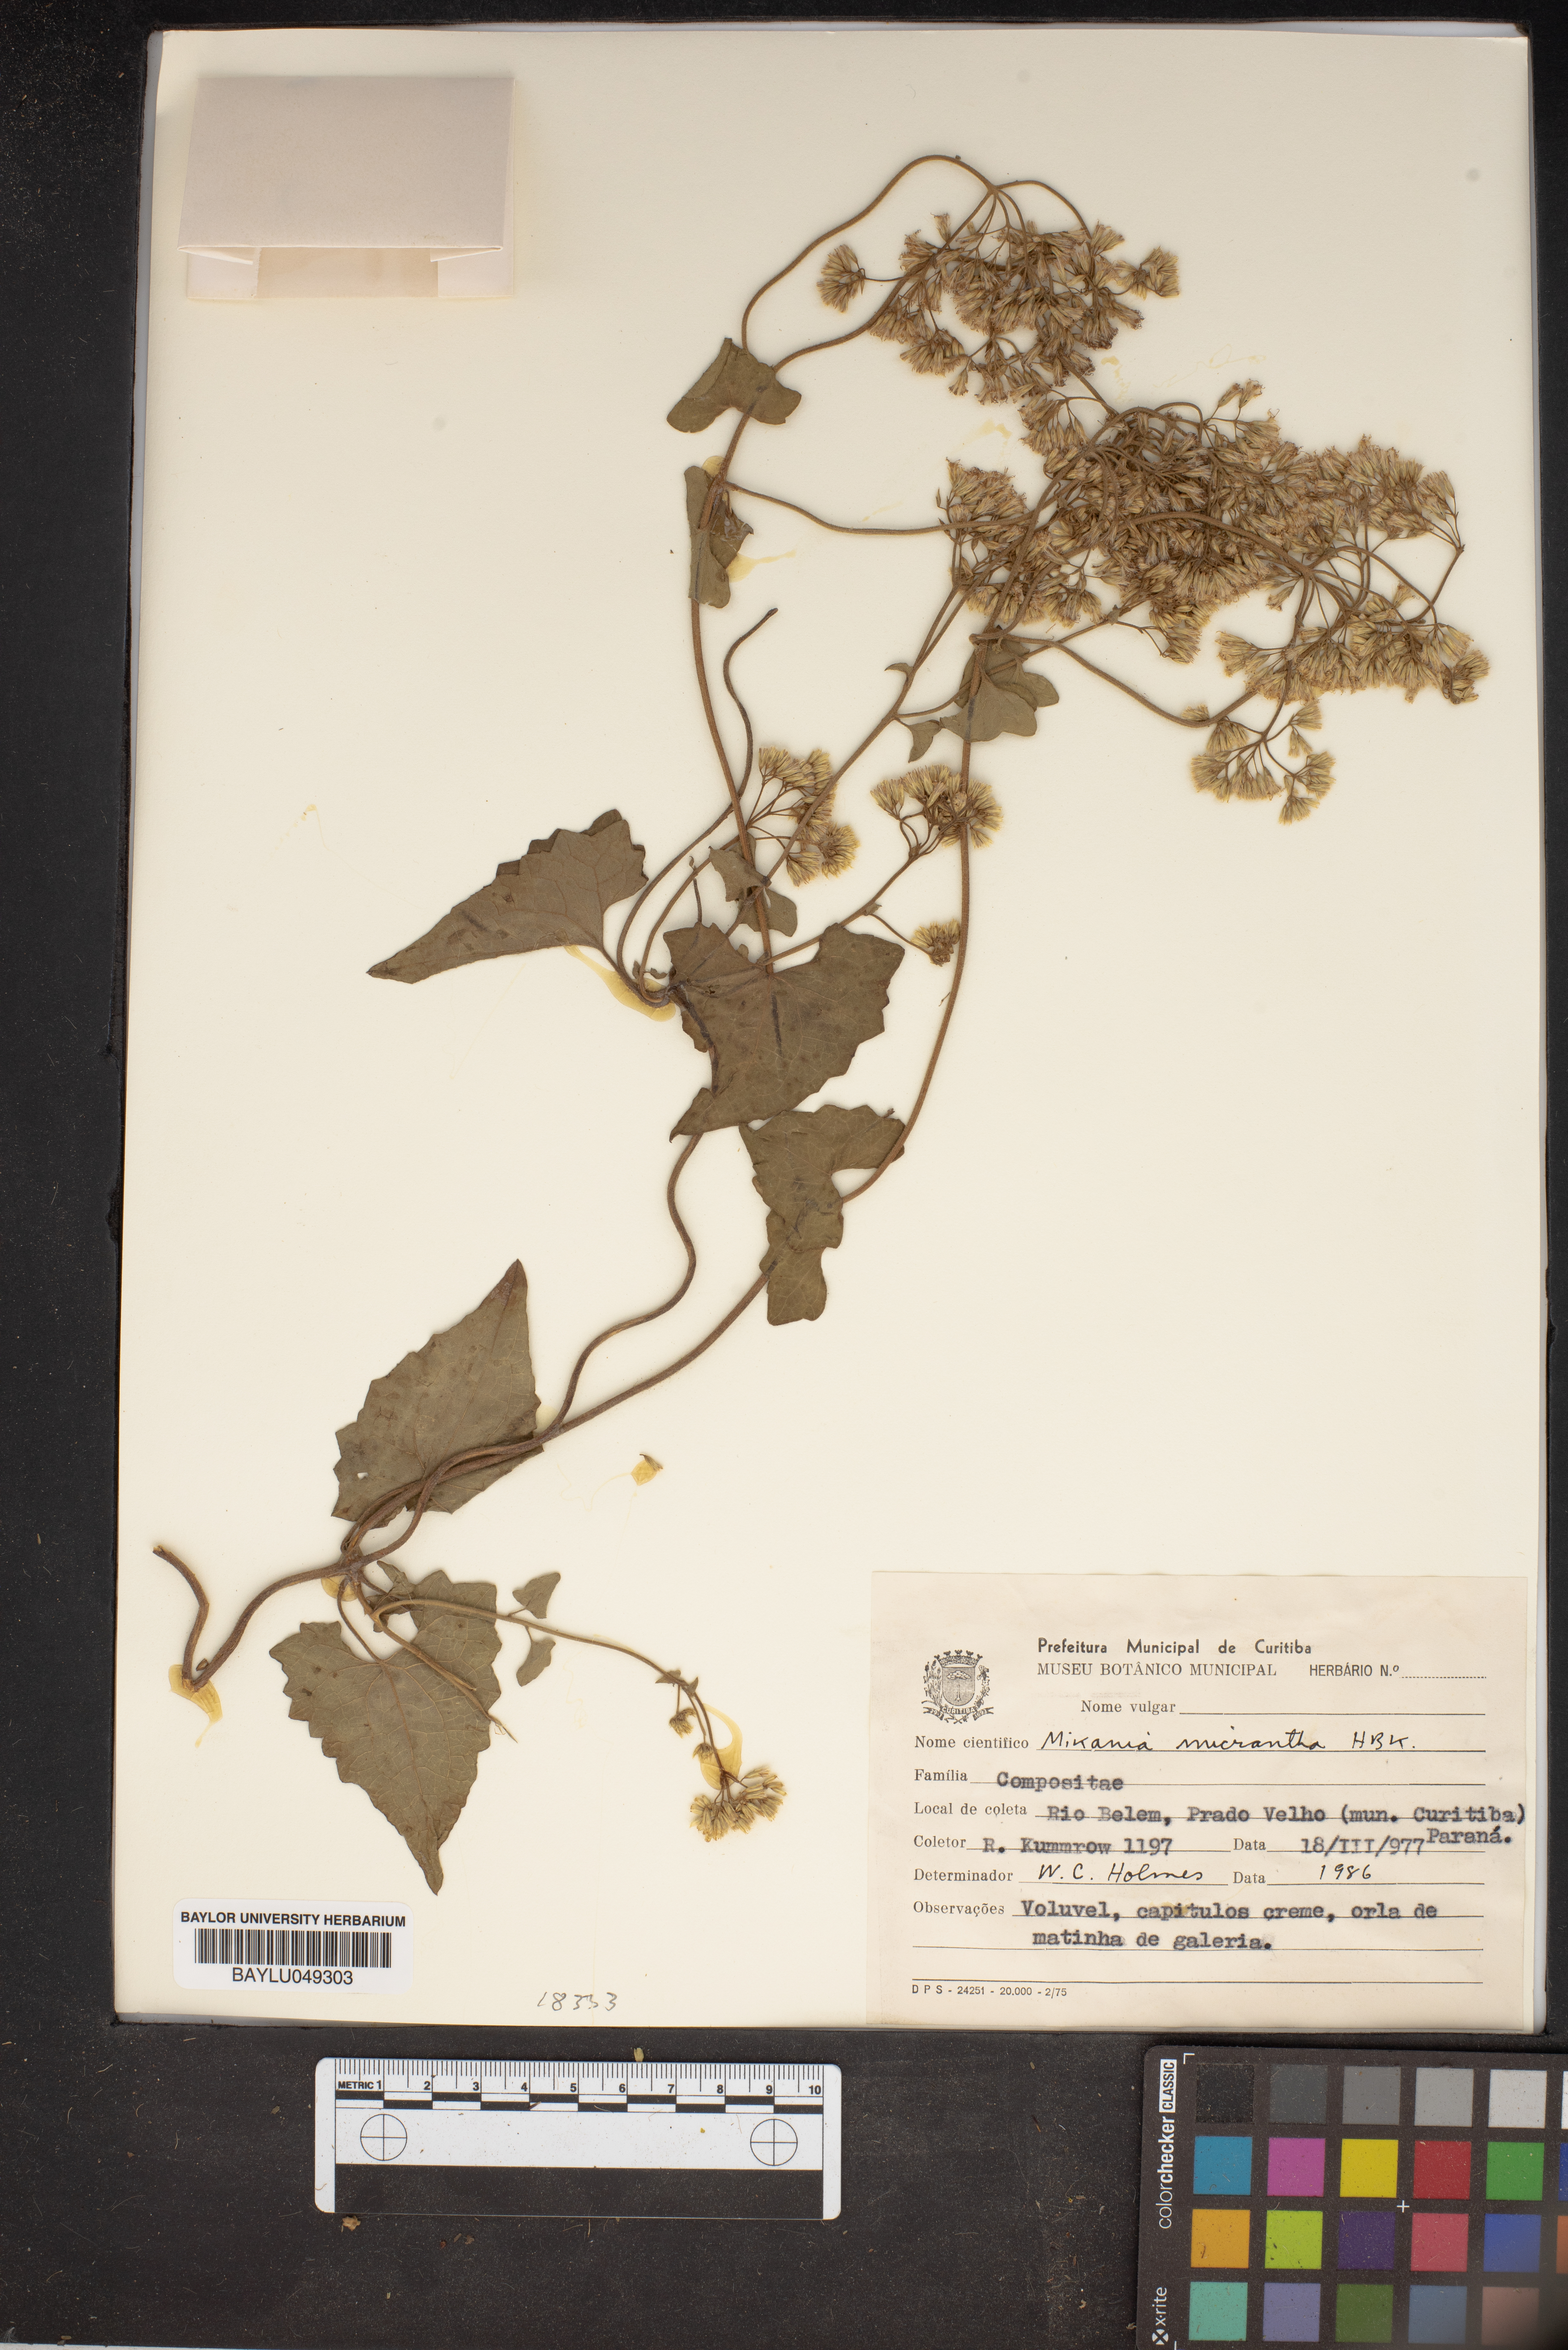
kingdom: Plantae
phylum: Tracheophyta
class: Magnoliopsida
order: Asterales
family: Asteraceae
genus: Mikania
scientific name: Mikania micrantha
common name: Mile-a-minute
